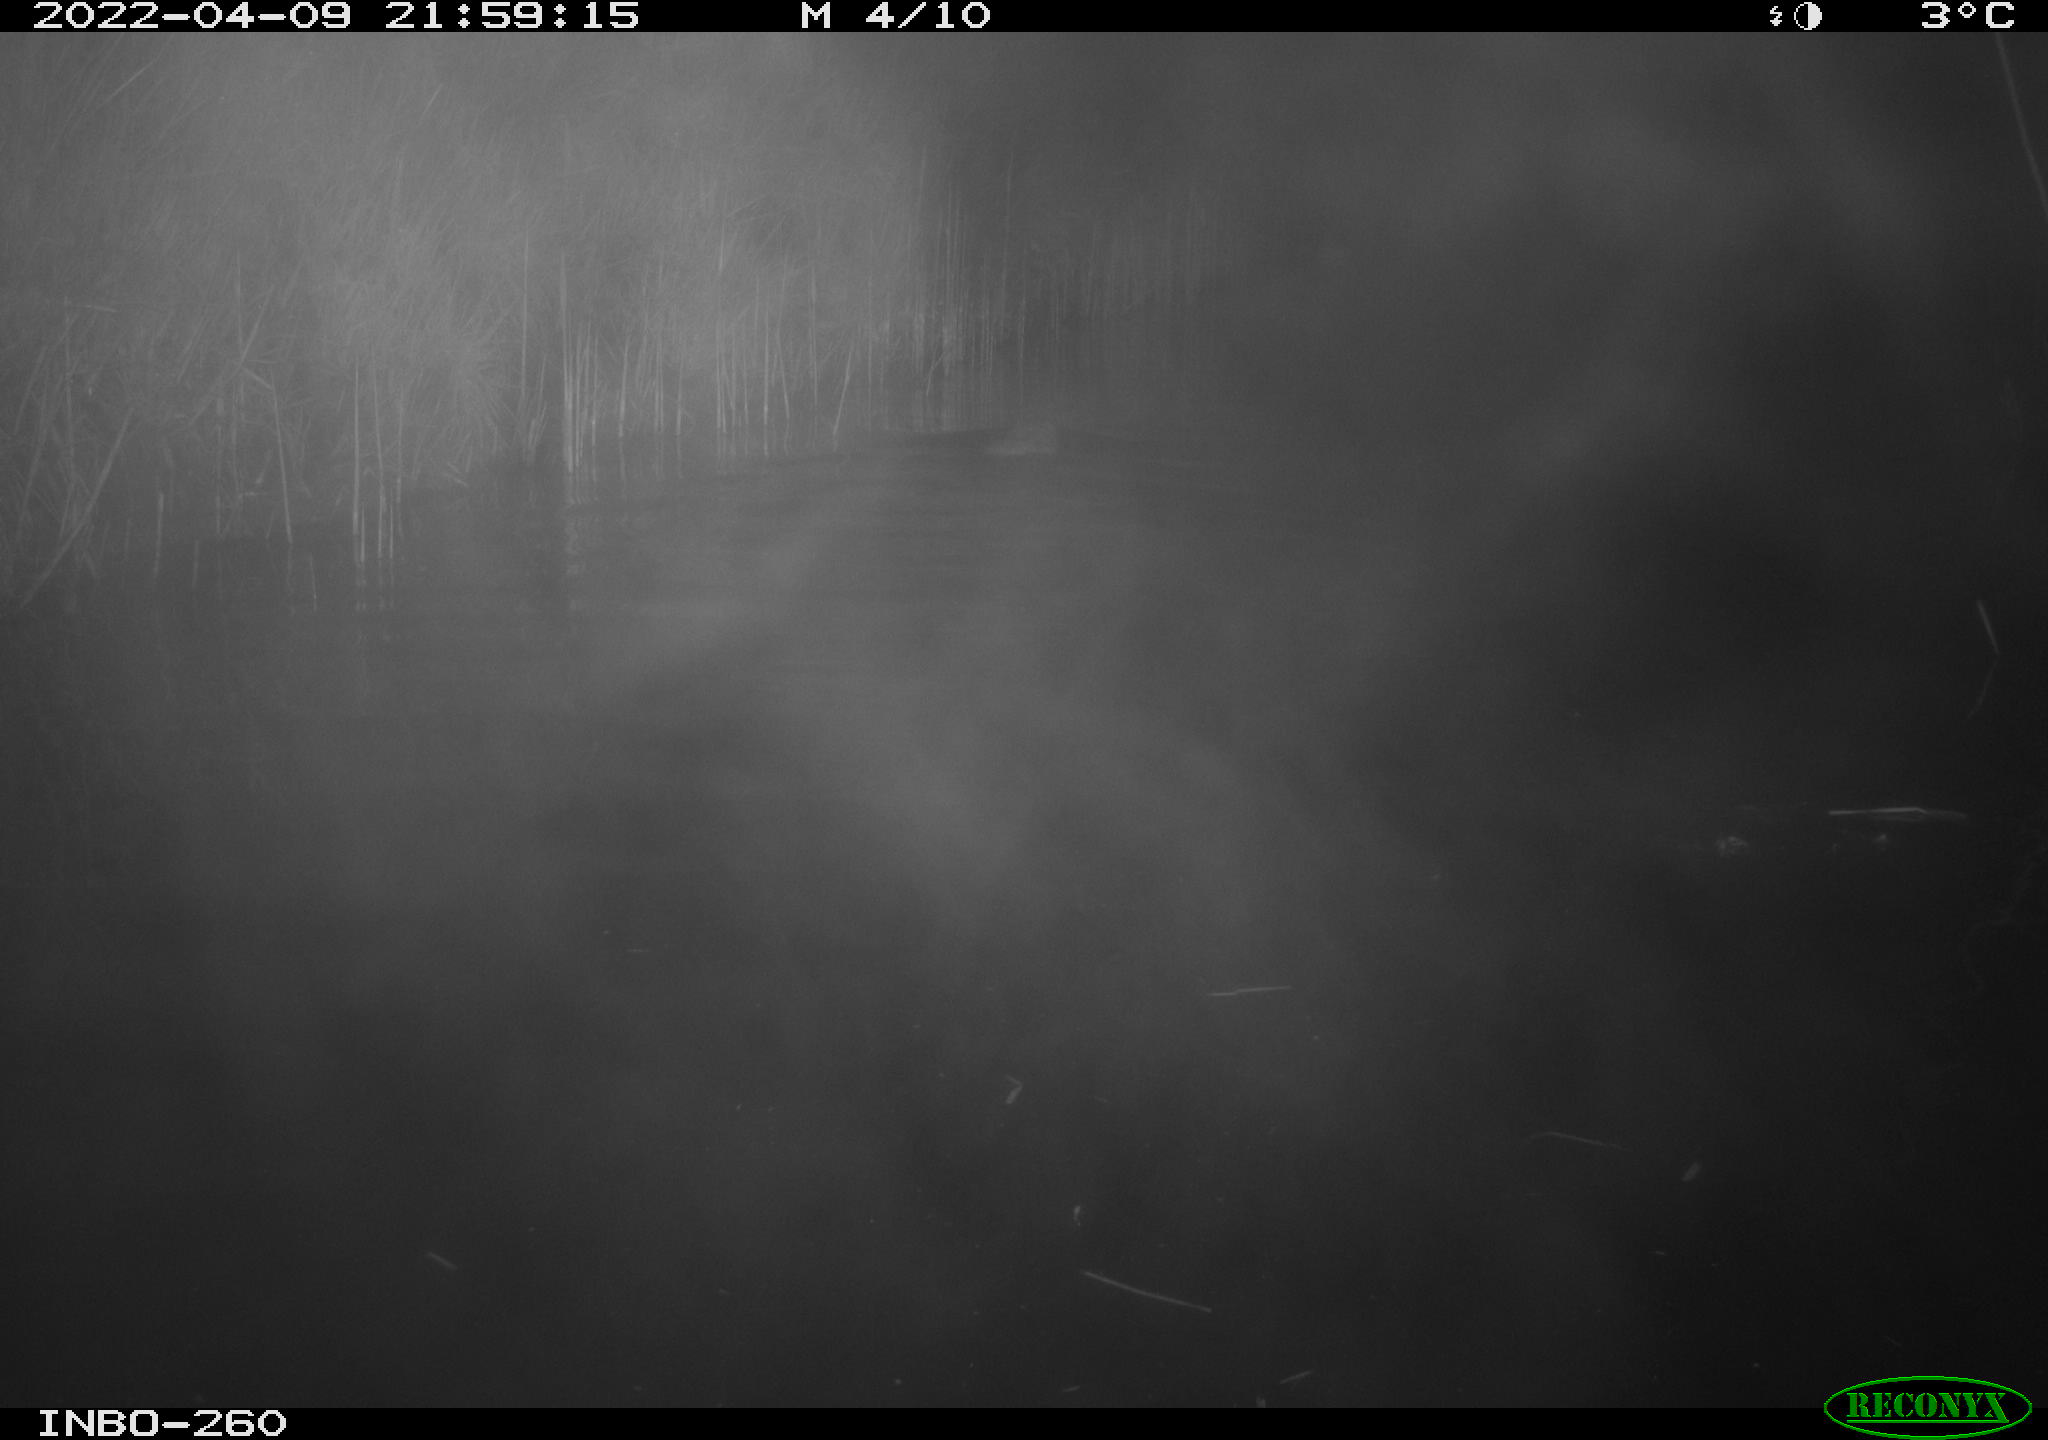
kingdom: Animalia
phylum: Chordata
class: Mammalia
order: Rodentia
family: Cricetidae
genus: Ondatra
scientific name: Ondatra zibethicus
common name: Muskrat
